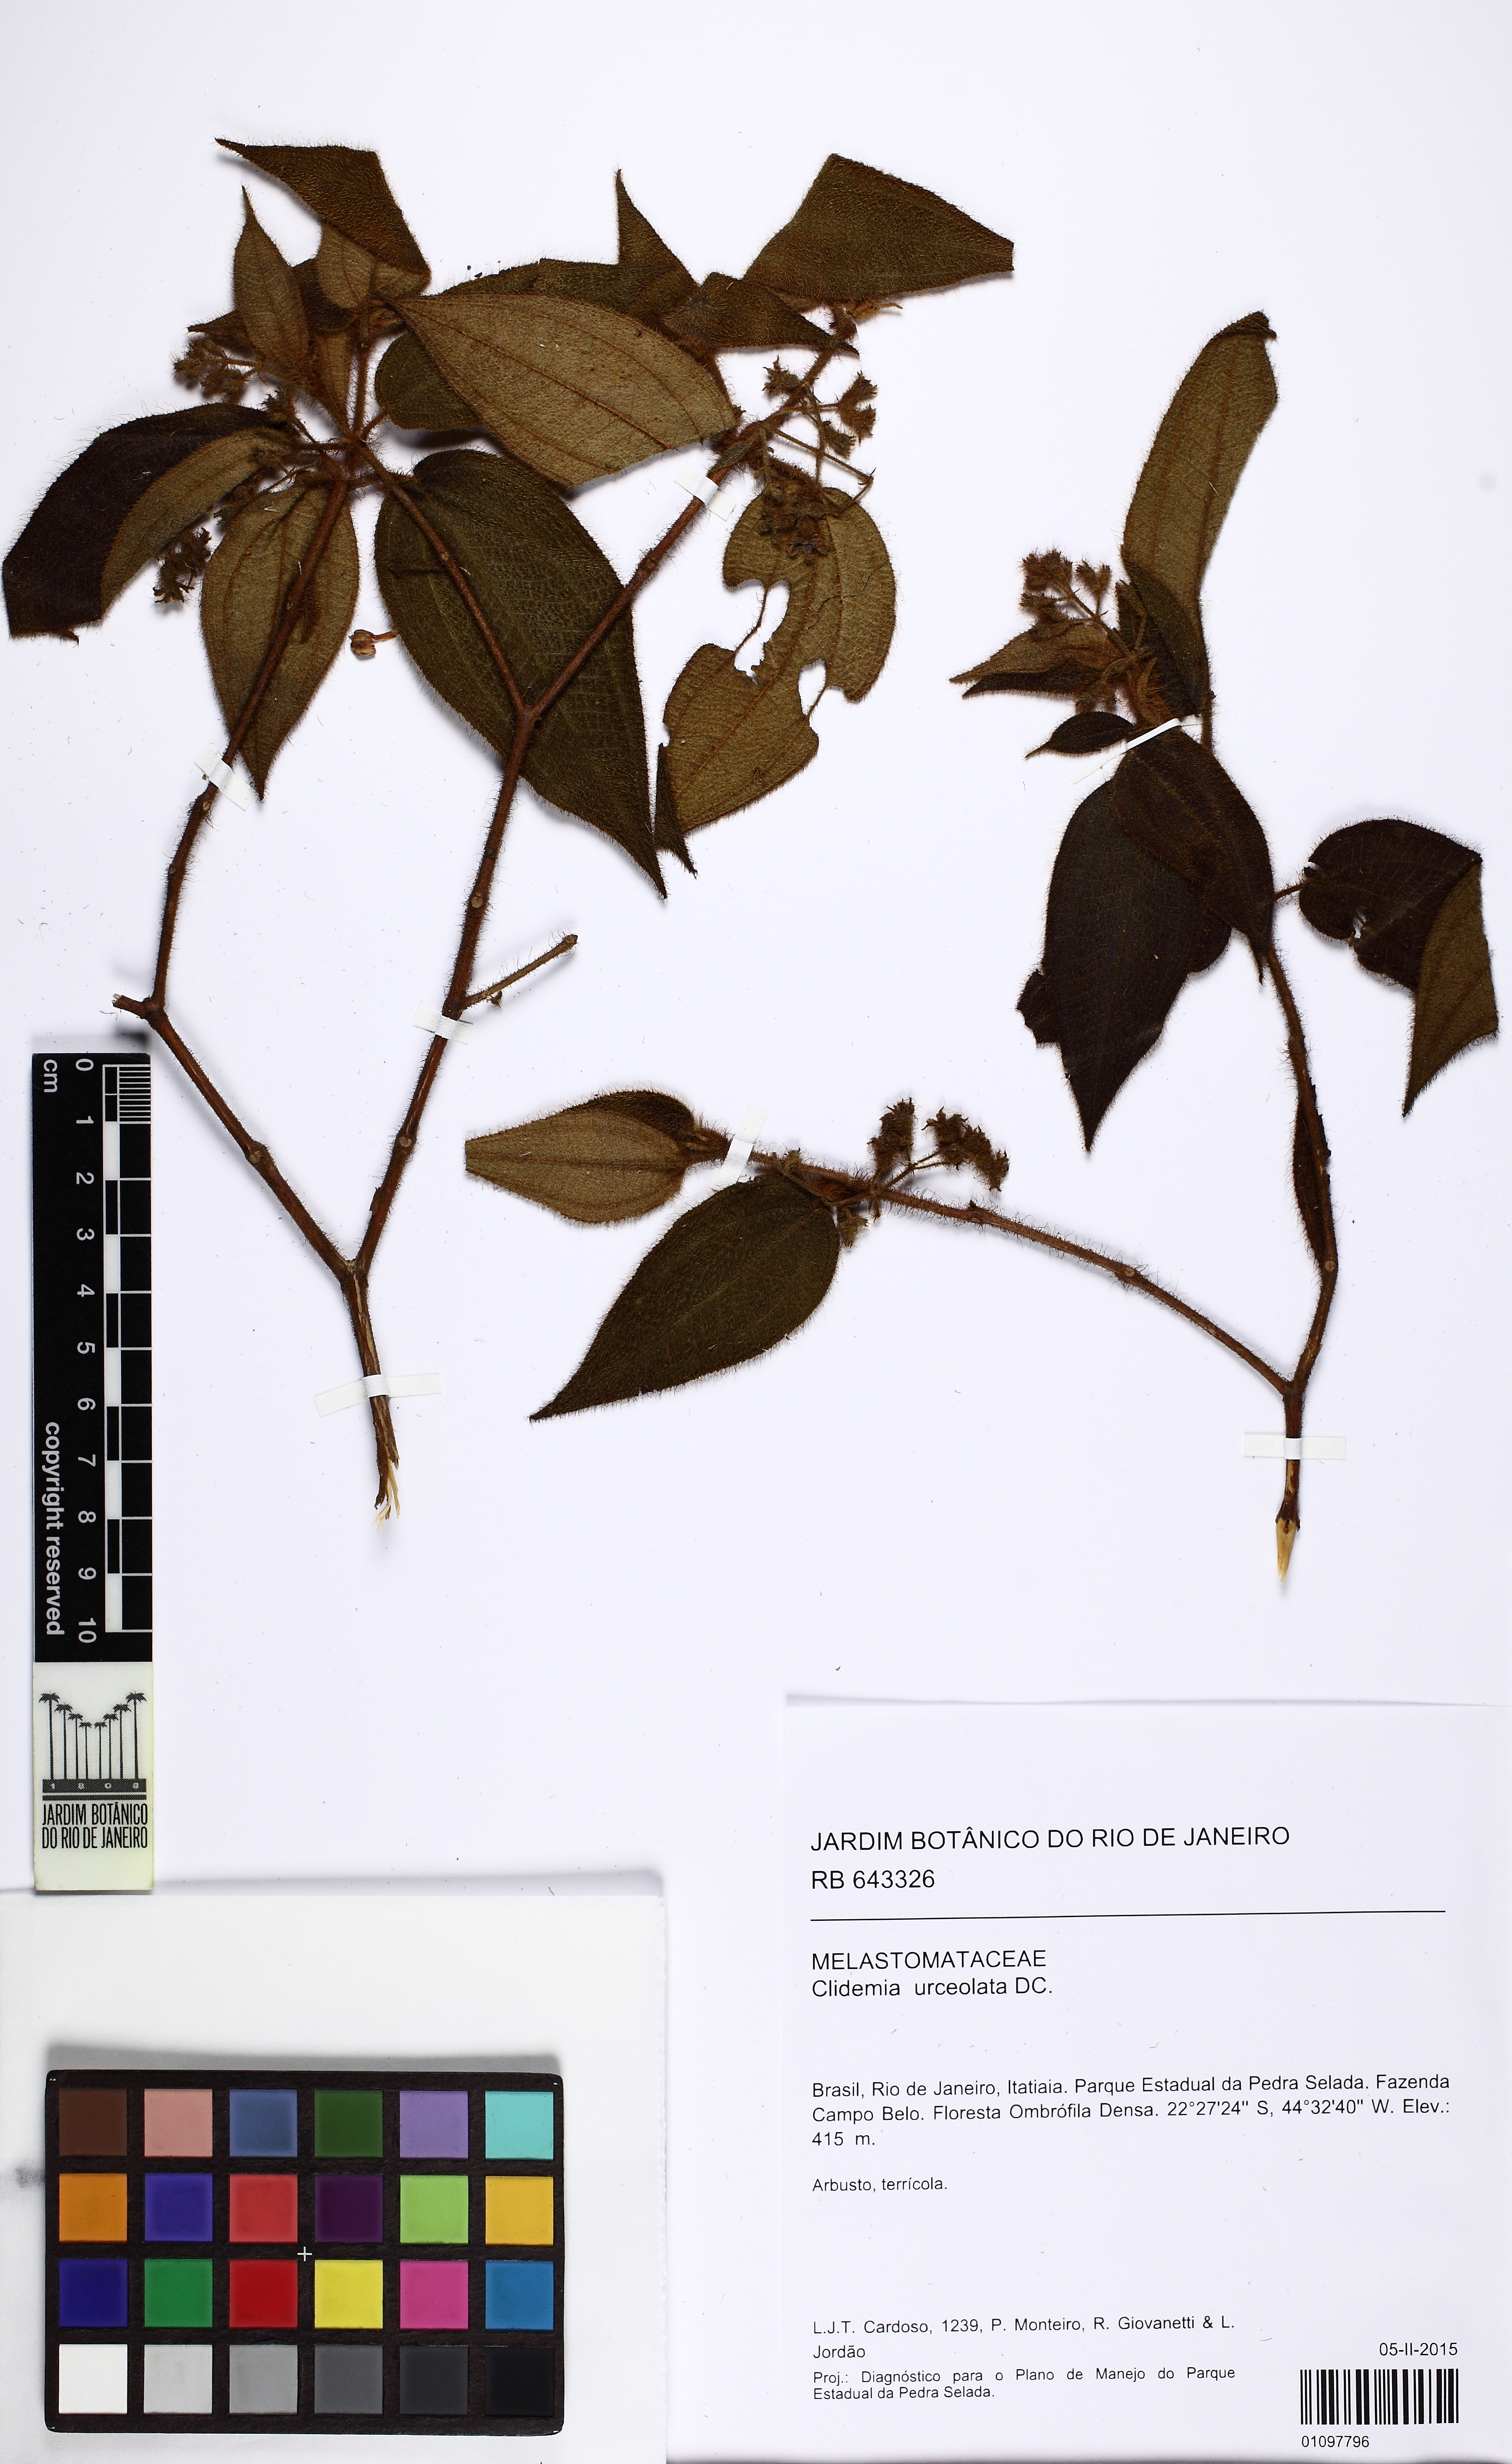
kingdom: Plantae
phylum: Tracheophyta
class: Magnoliopsida
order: Myrtales
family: Melastomataceae
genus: Miconia
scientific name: Miconia neourceolata
